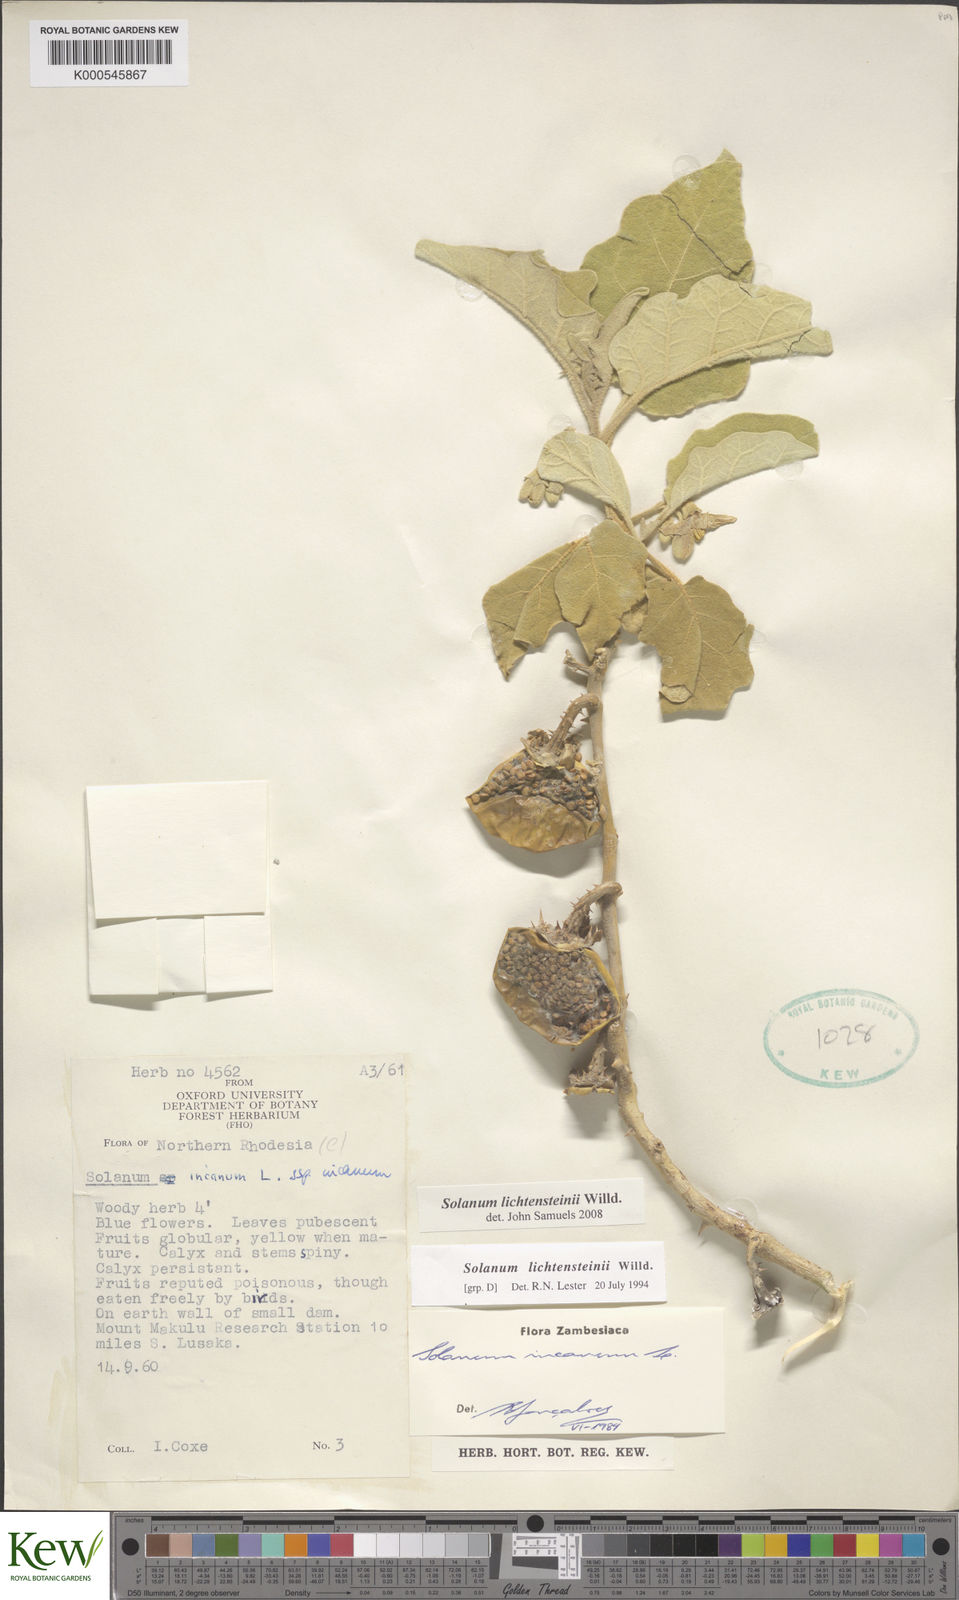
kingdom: Plantae
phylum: Tracheophyta
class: Magnoliopsida
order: Solanales
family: Solanaceae
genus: Solanum
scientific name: Solanum lichtensteinii
